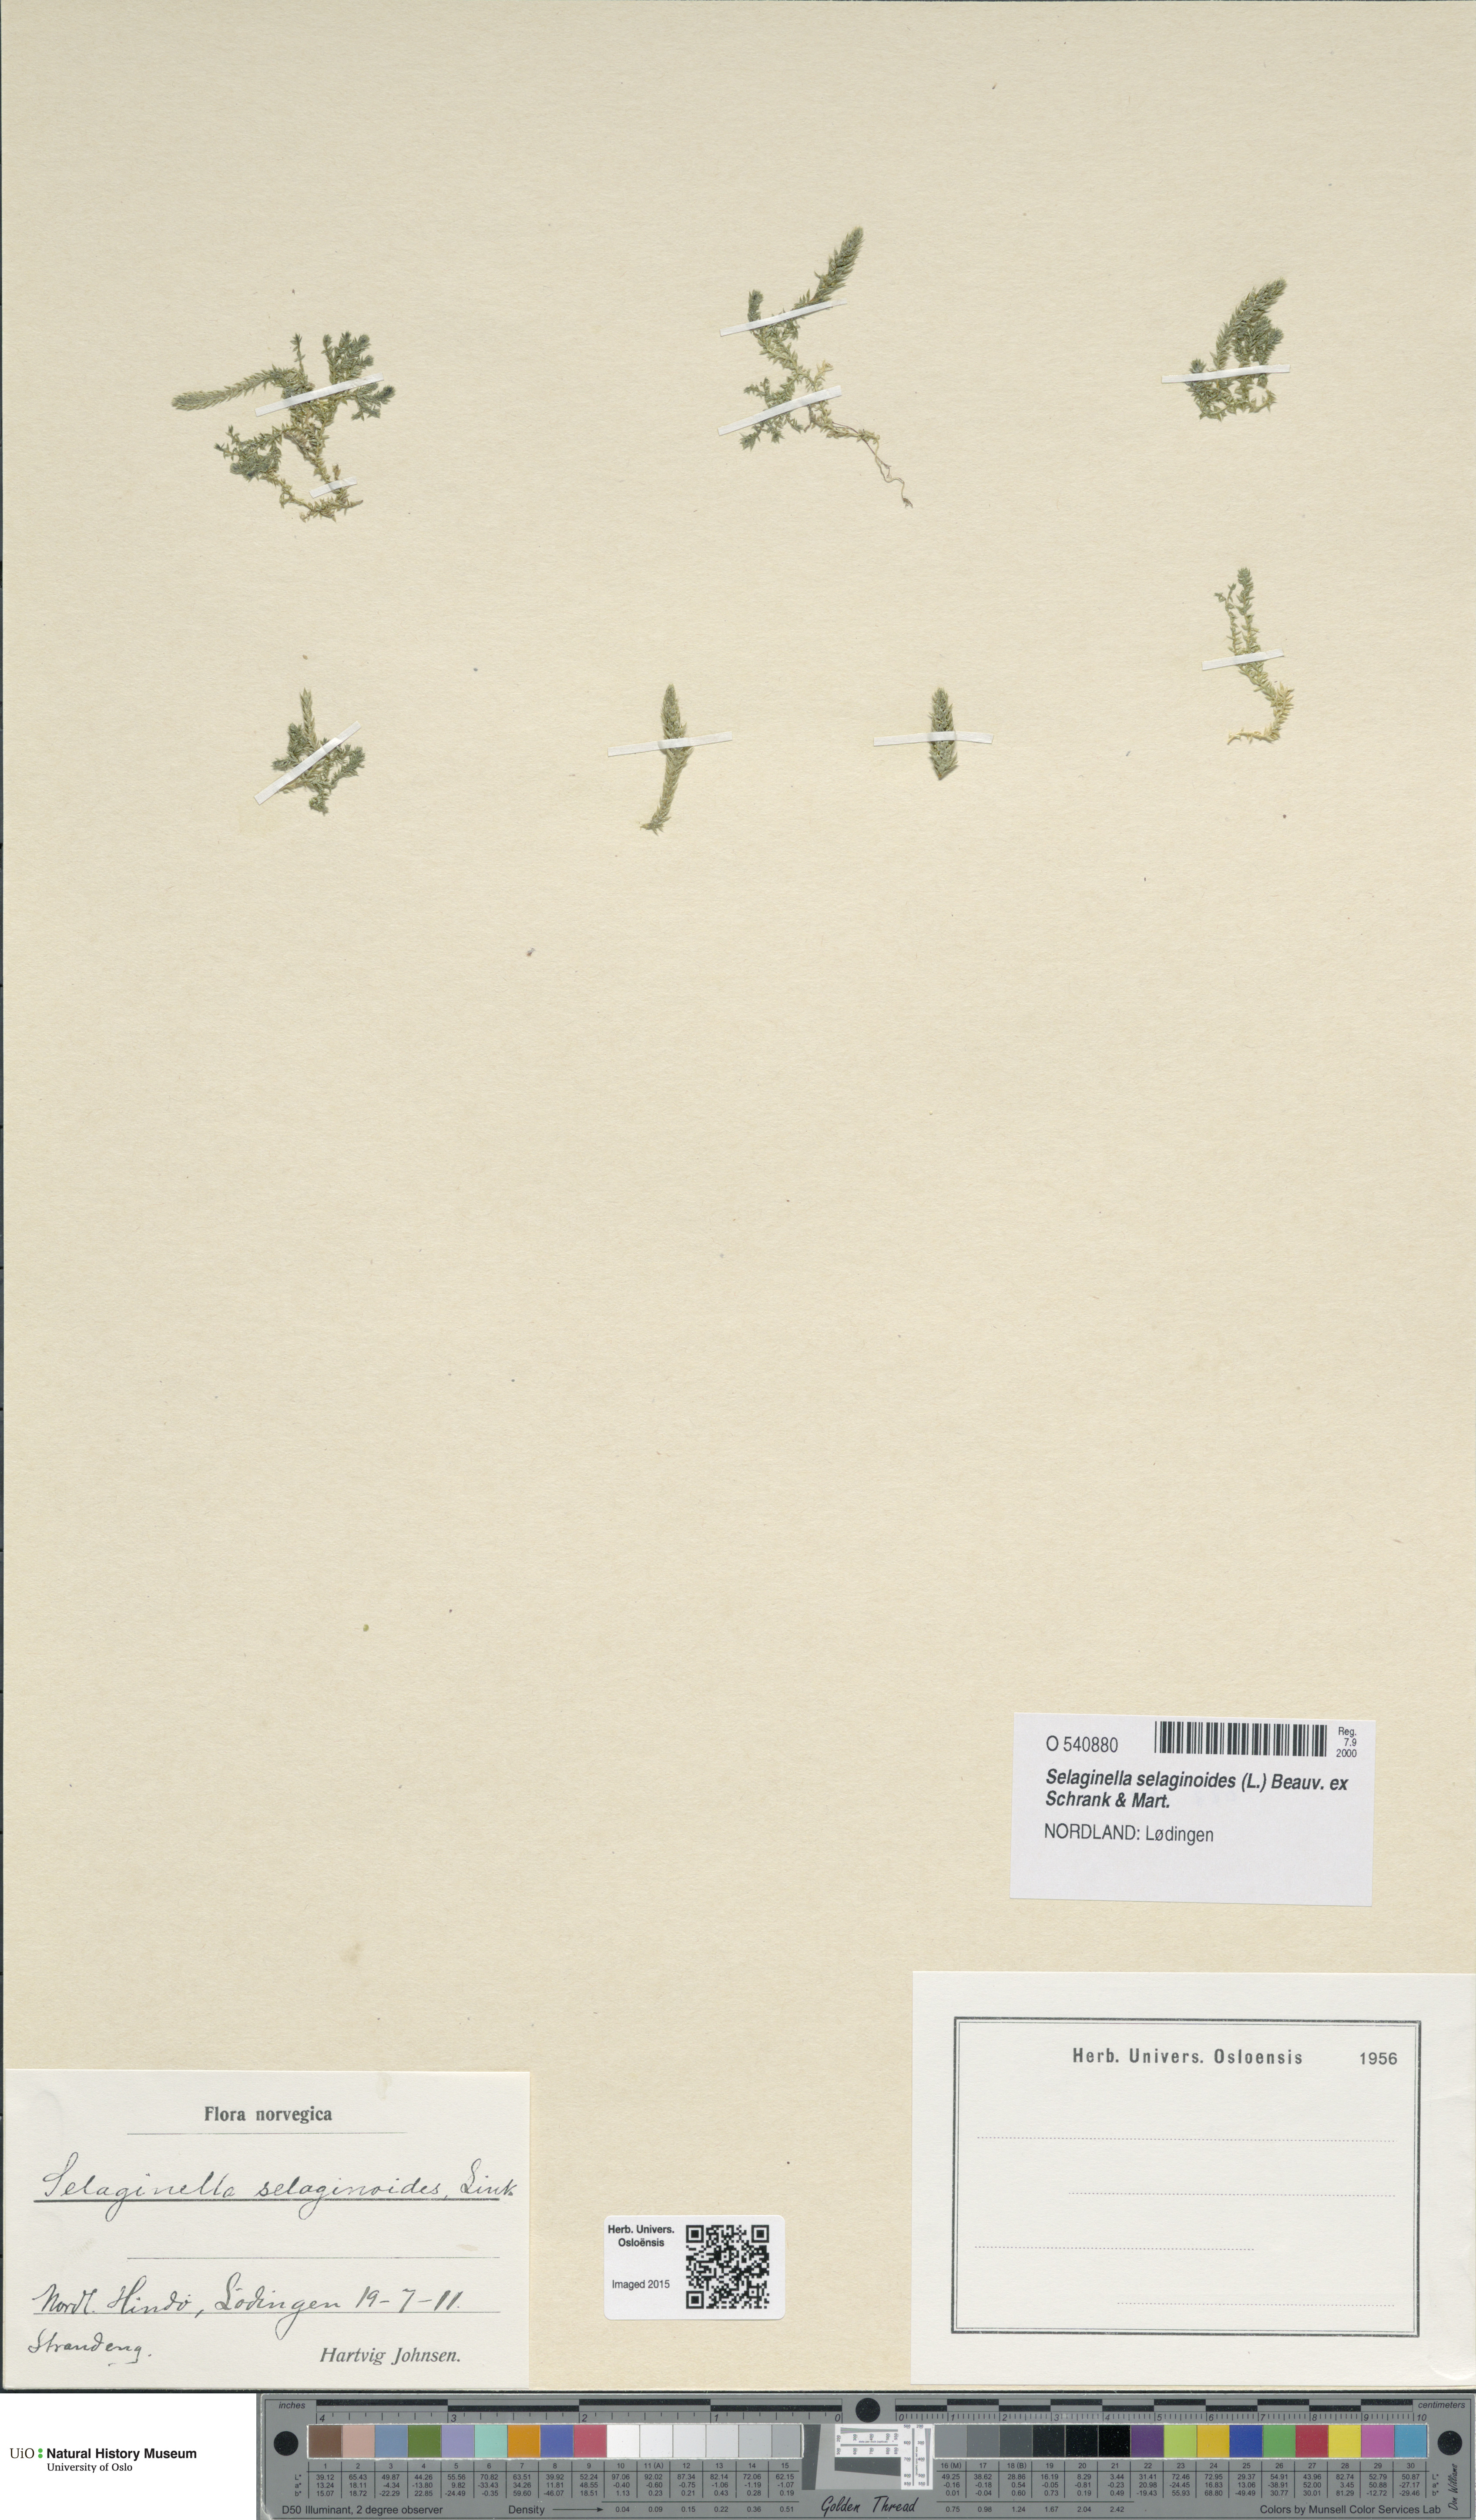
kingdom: Plantae
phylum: Tracheophyta
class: Lycopodiopsida
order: Selaginellales
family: Selaginellaceae
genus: Selaginella
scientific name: Selaginella selaginoides
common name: Prickly mountain-moss
